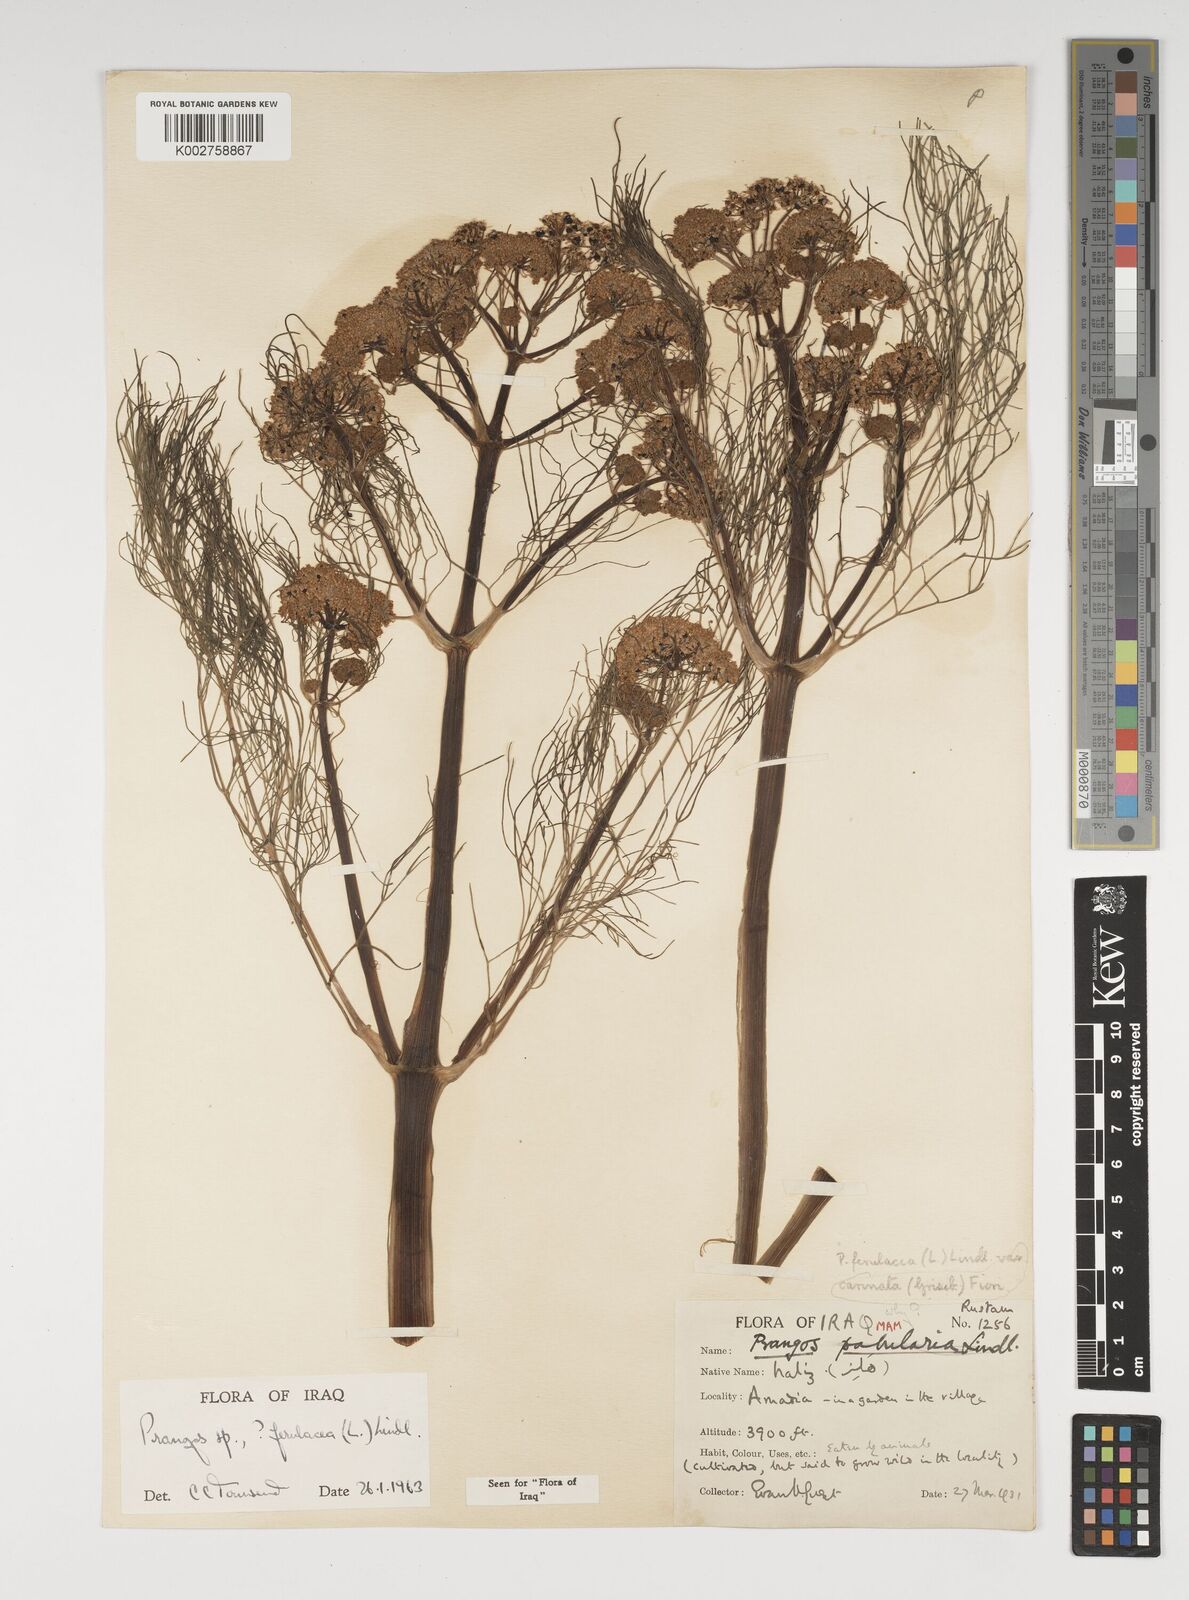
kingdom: Plantae
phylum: Tracheophyta
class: Magnoliopsida
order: Apiales
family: Apiaceae
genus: Prangos
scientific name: Prangos ferulacea
